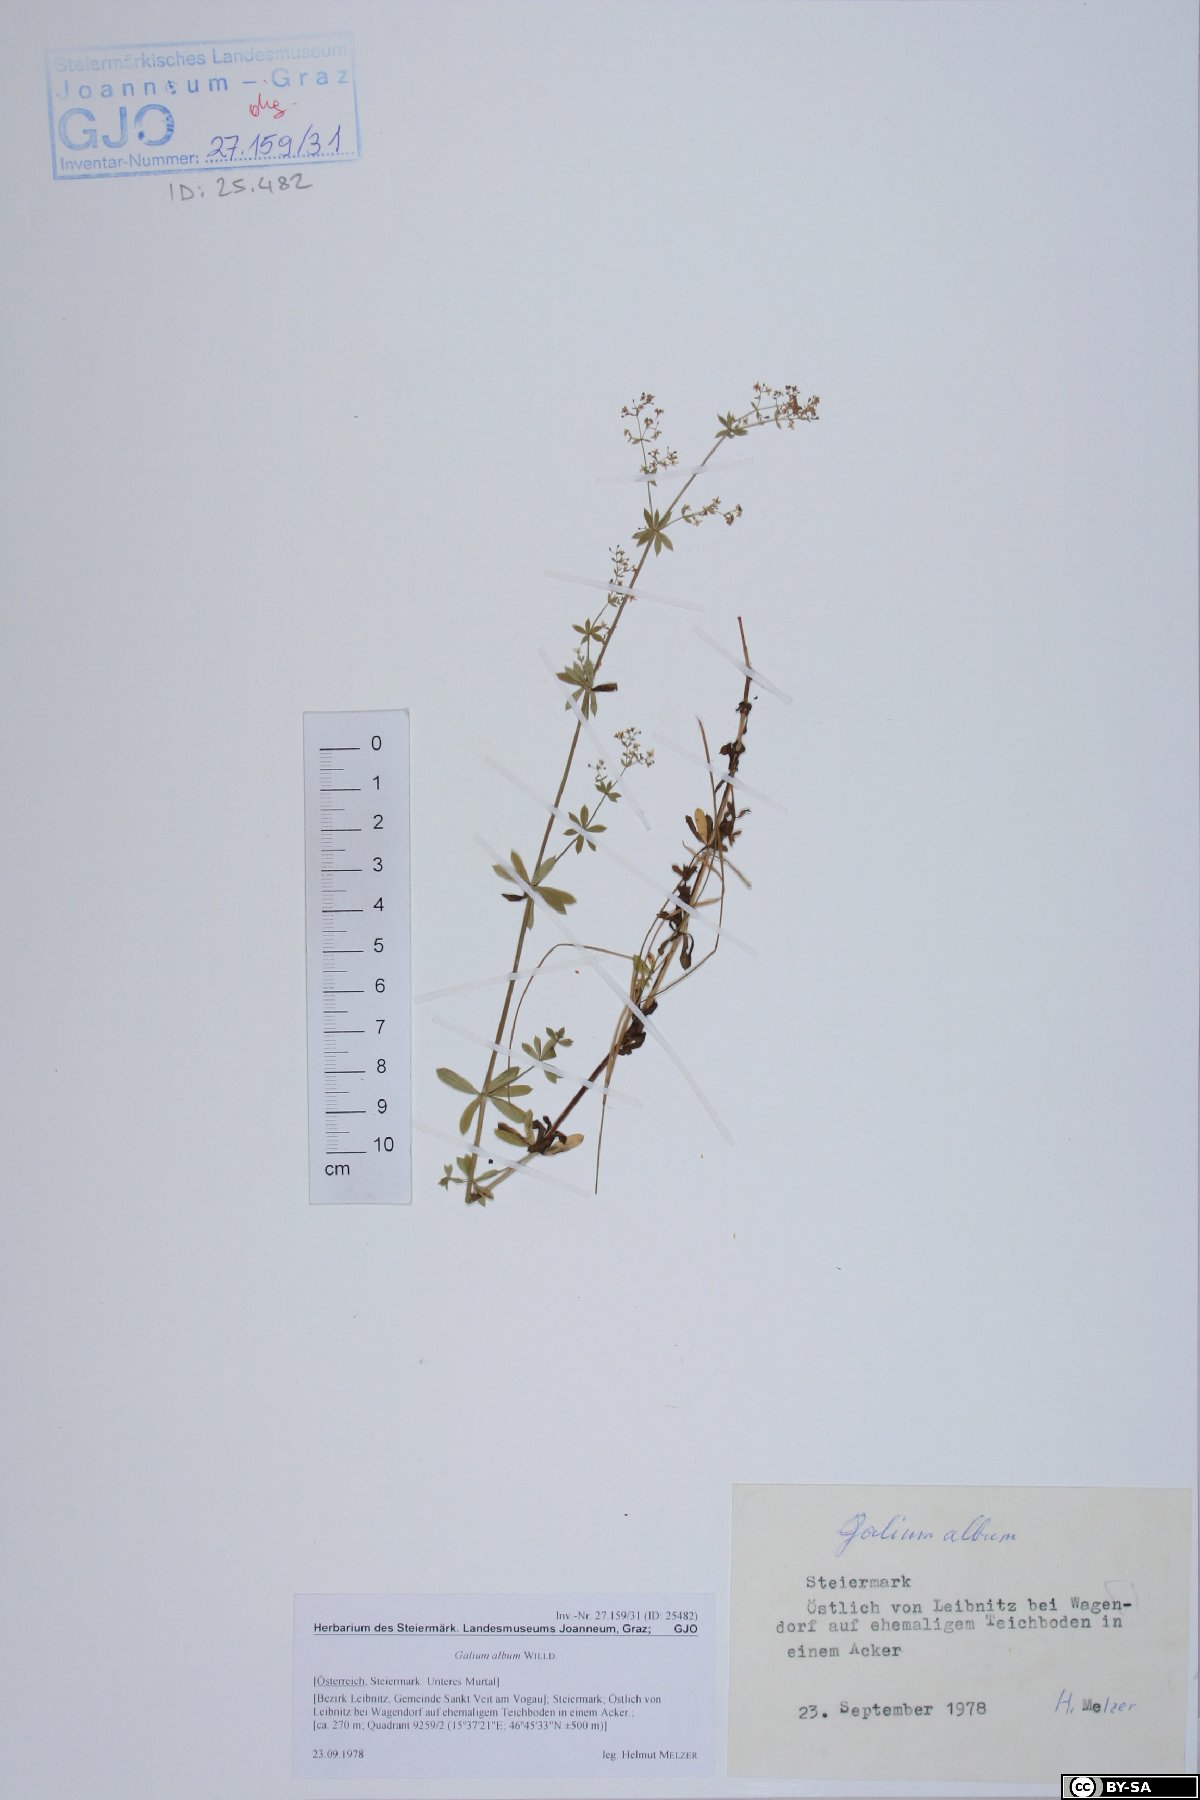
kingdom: Plantae
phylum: Tracheophyta
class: Magnoliopsida
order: Gentianales
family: Rubiaceae
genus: Galium
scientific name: Galium album
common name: White bedstraw
